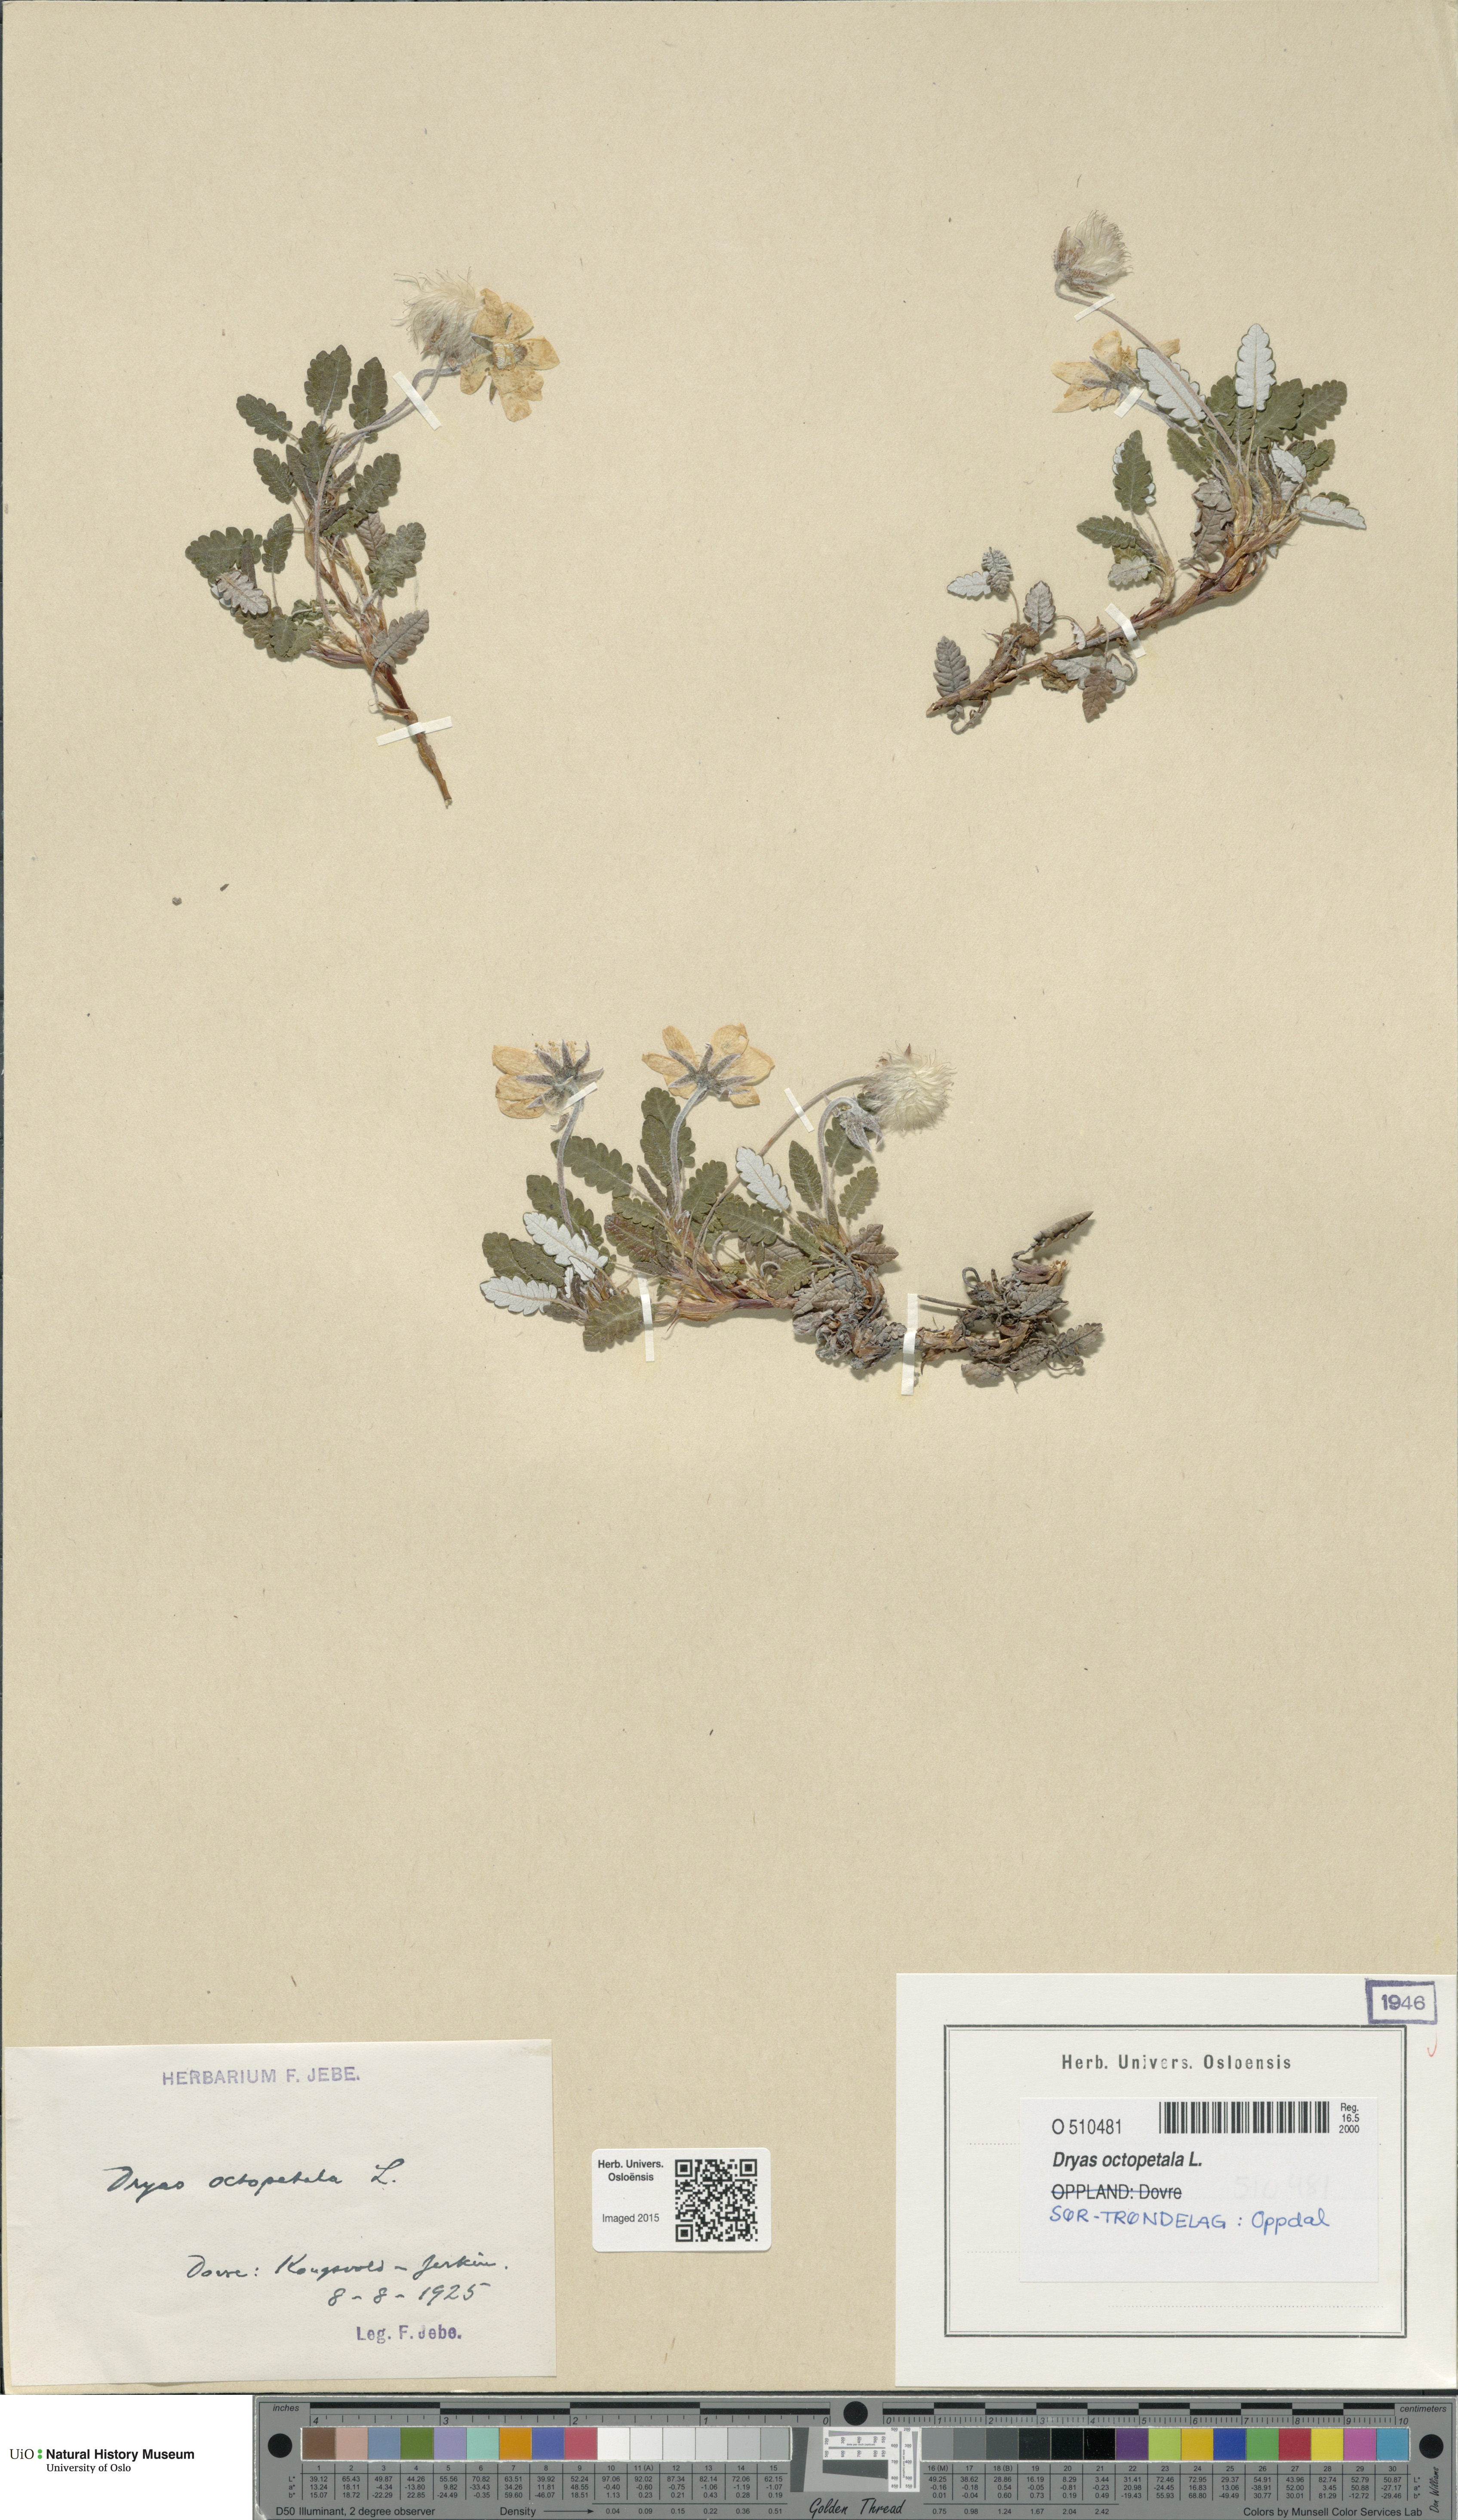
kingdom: Plantae
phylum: Tracheophyta
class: Magnoliopsida
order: Rosales
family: Rosaceae
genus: Dryas
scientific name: Dryas octopetala
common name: Eight-petal mountain-avens
